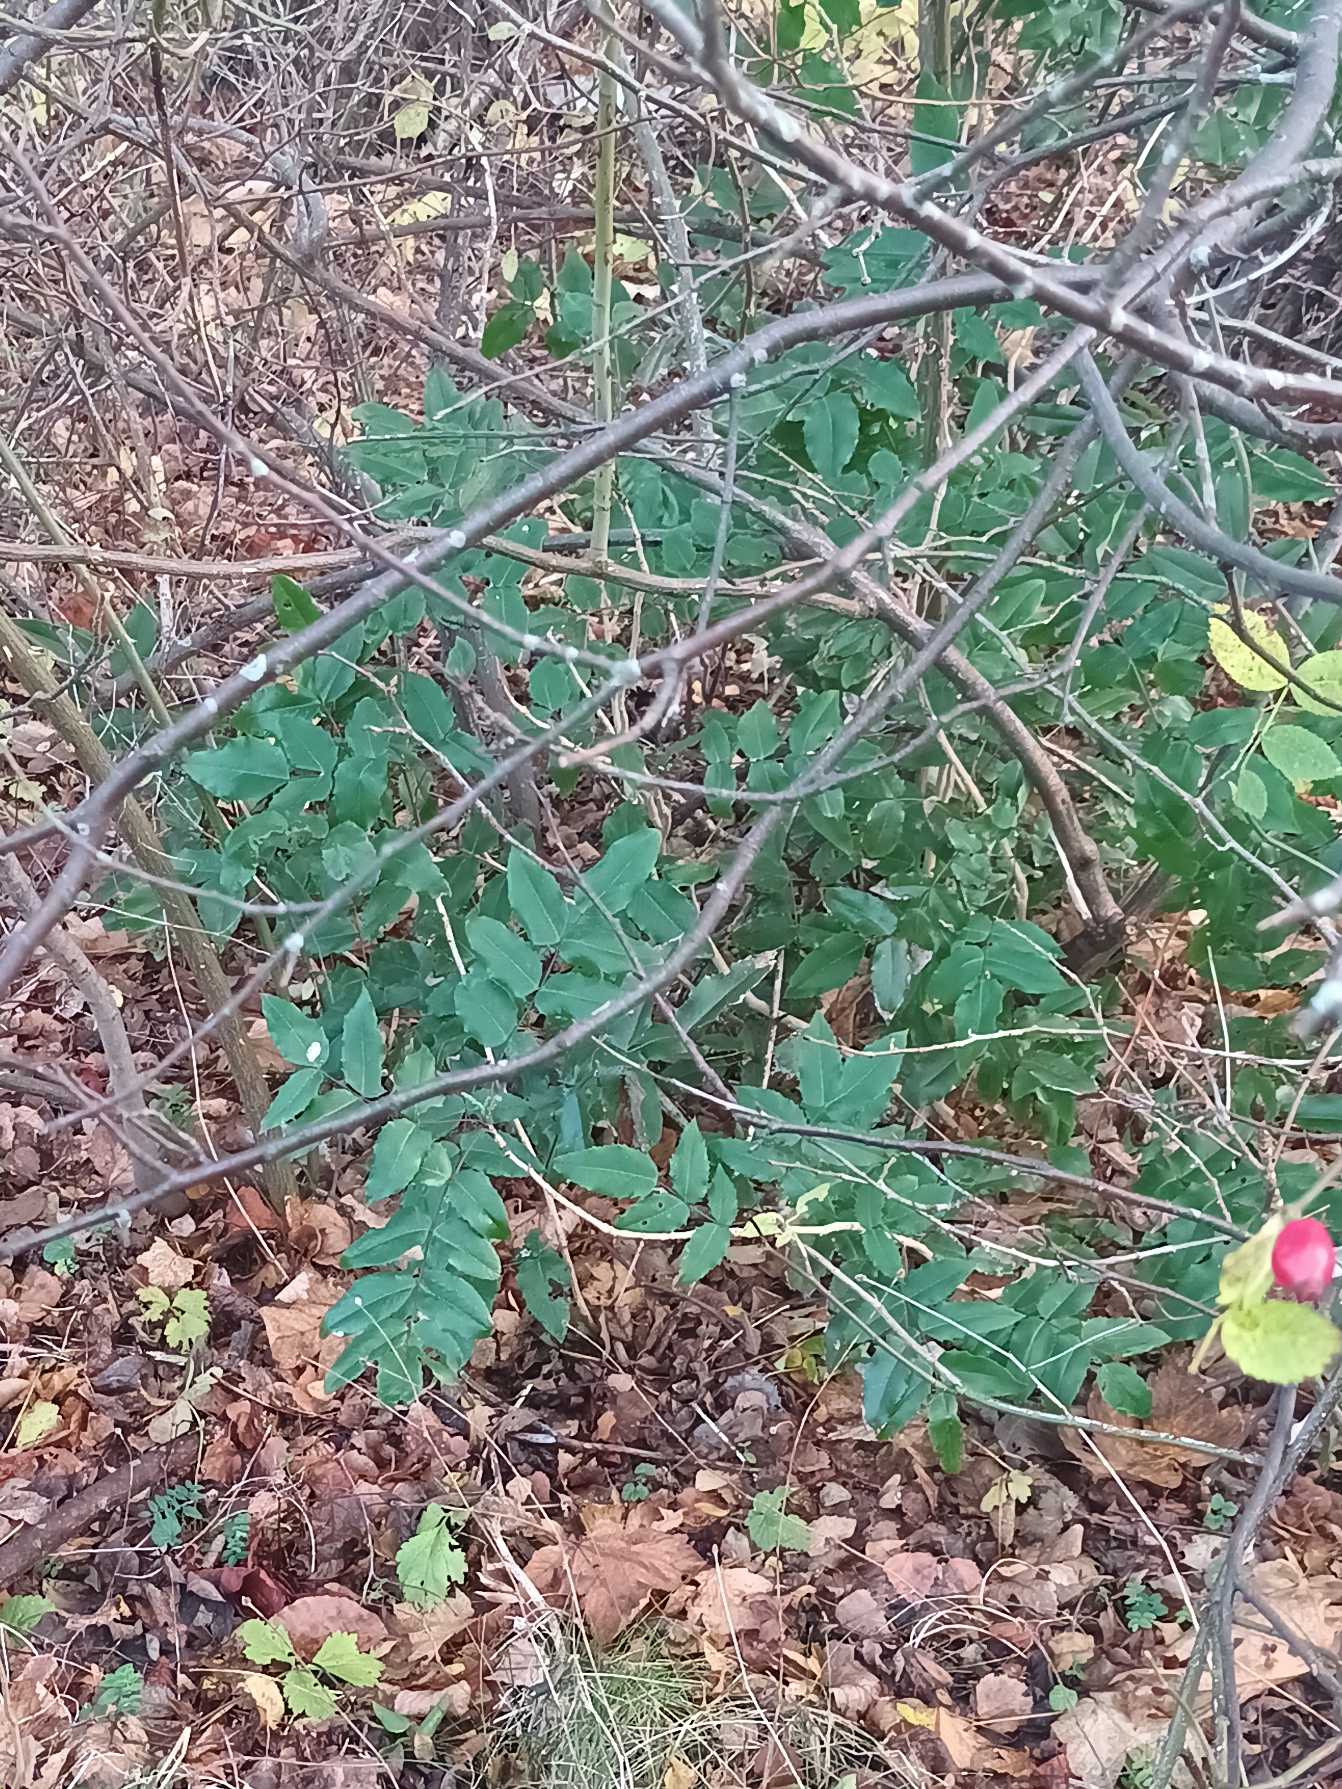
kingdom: Plantae
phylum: Tracheophyta
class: Magnoliopsida
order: Ranunculales
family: Berberidaceae
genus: Mahonia
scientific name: Mahonia aquifolium
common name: Almindelig mahonie
